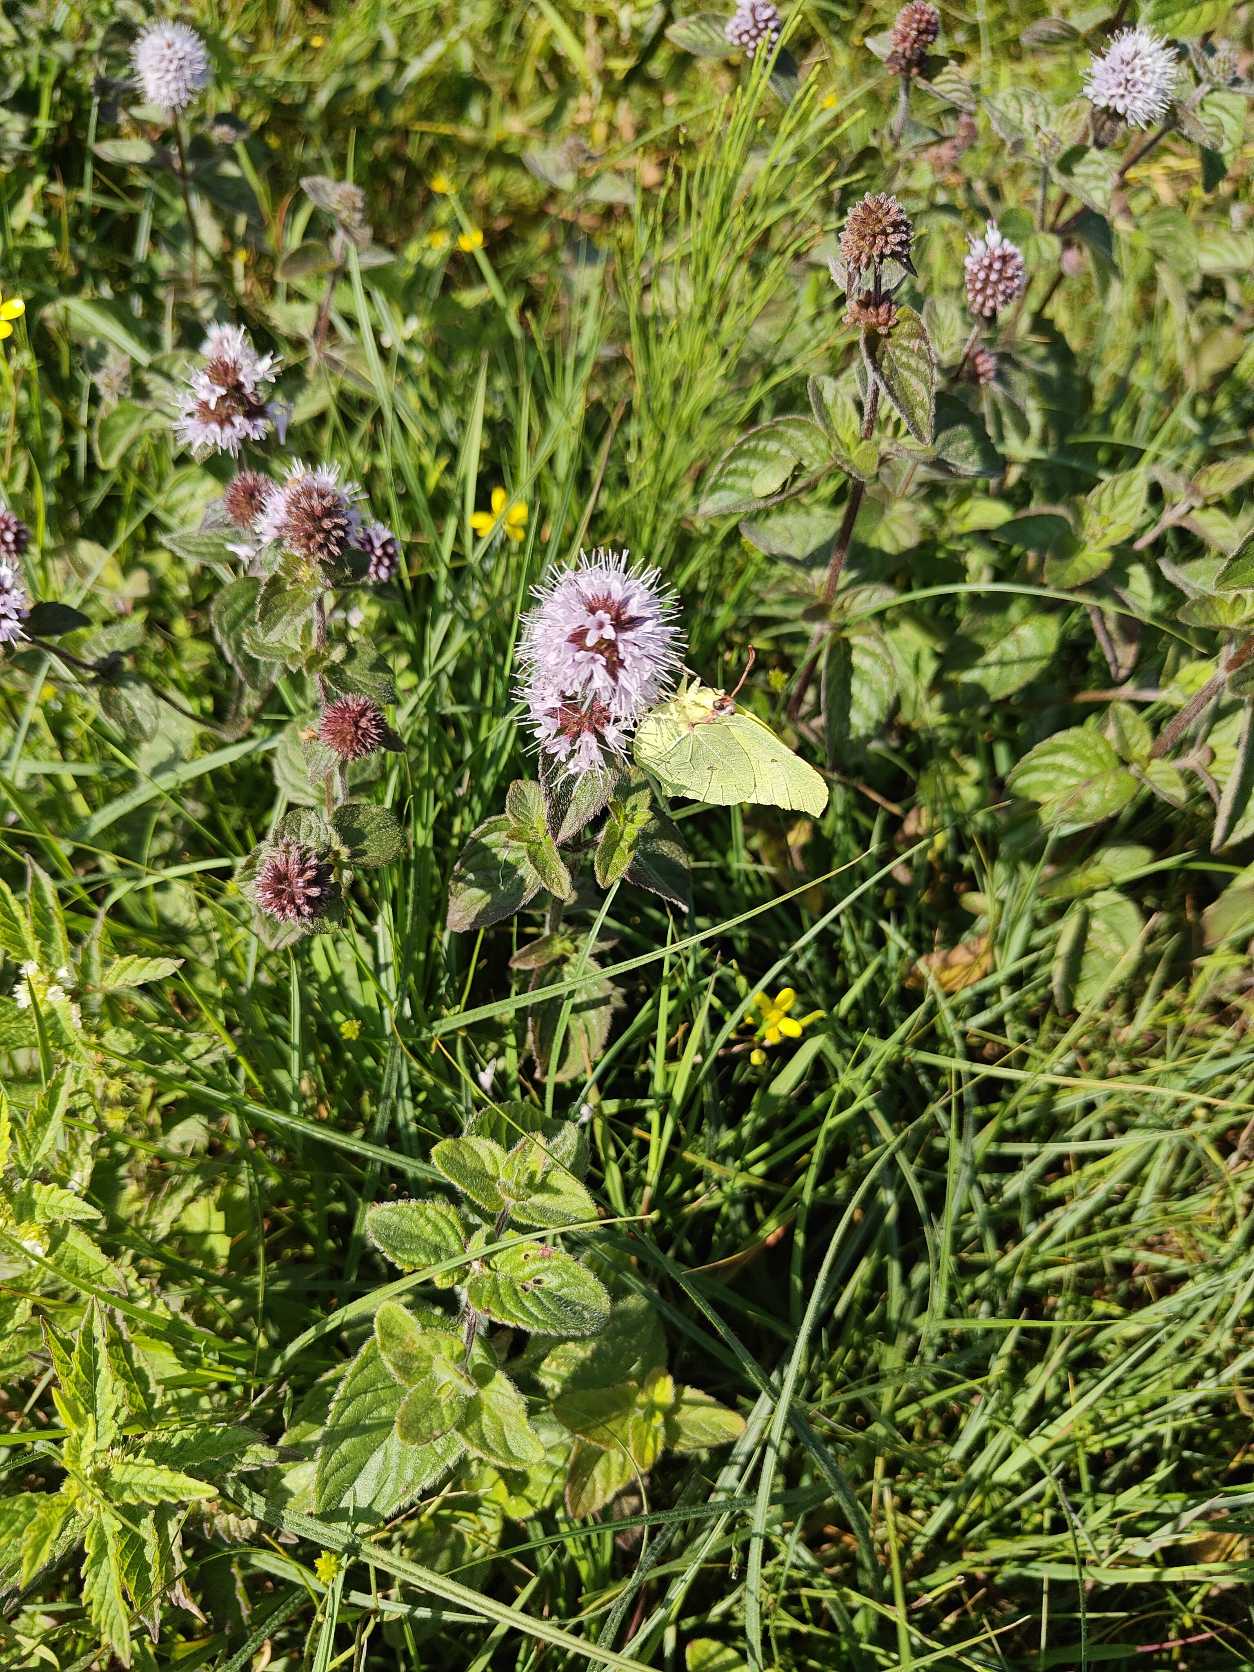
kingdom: Animalia
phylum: Arthropoda
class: Insecta
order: Lepidoptera
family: Pieridae
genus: Gonepteryx
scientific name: Gonepteryx rhamni
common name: Citronsommerfugl
